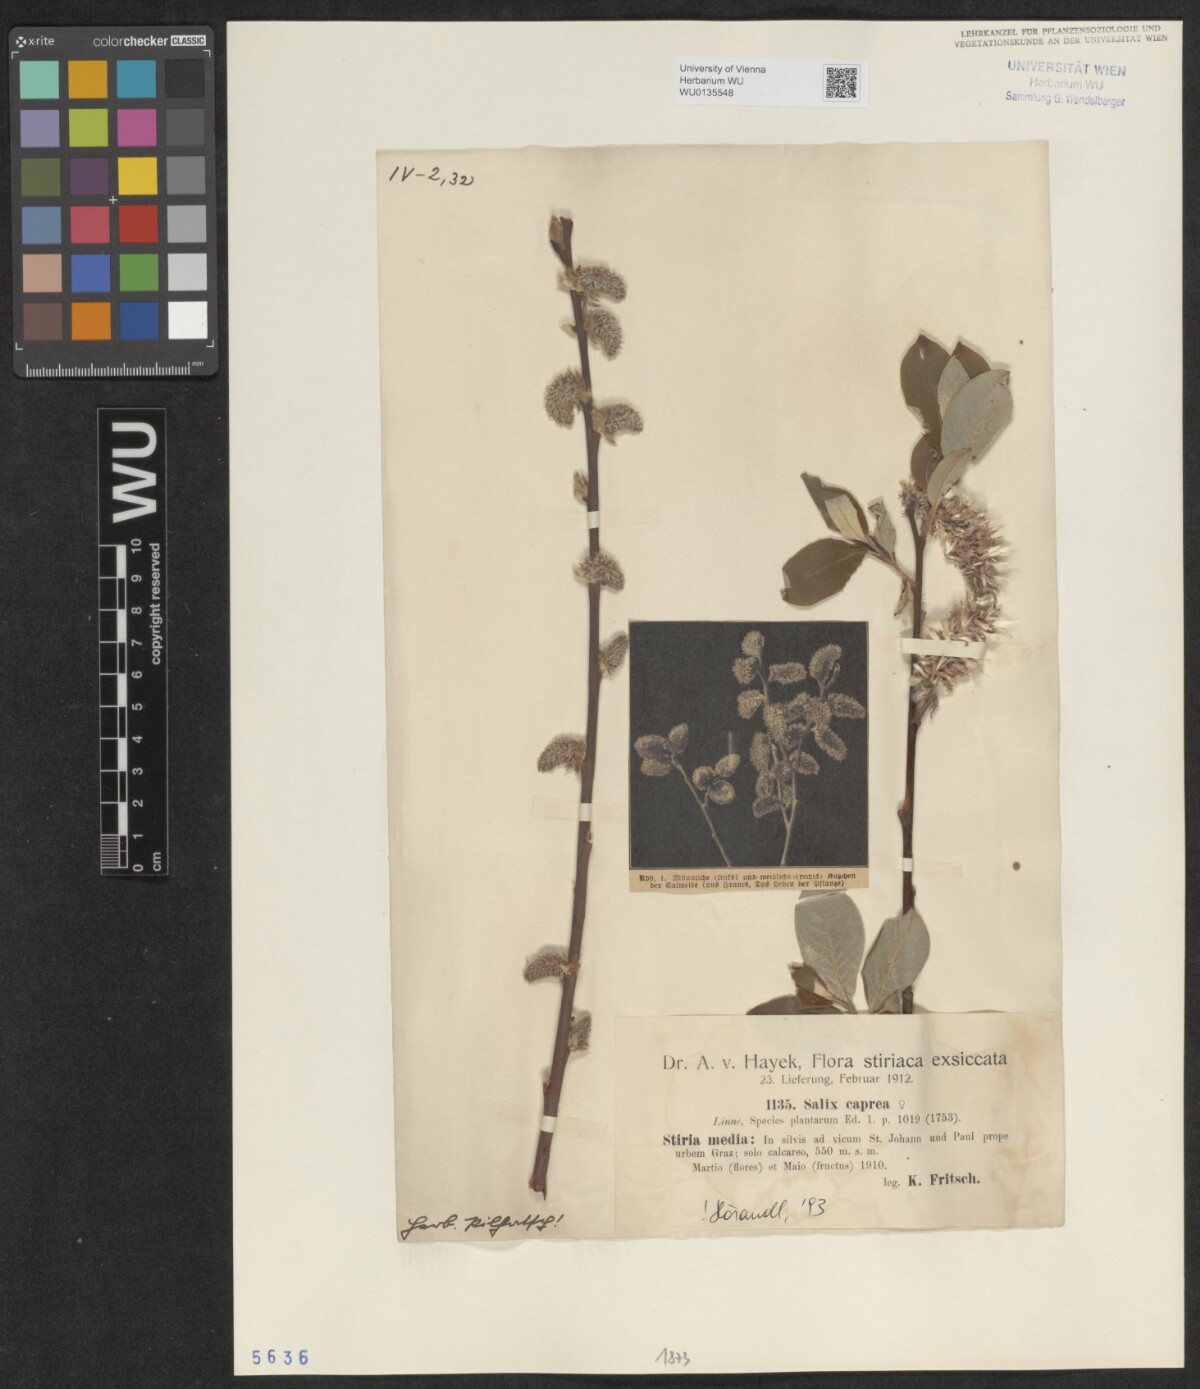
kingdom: Plantae
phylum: Tracheophyta
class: Magnoliopsida
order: Malpighiales
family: Salicaceae
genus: Salix
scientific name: Salix caprea
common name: Goat willow
